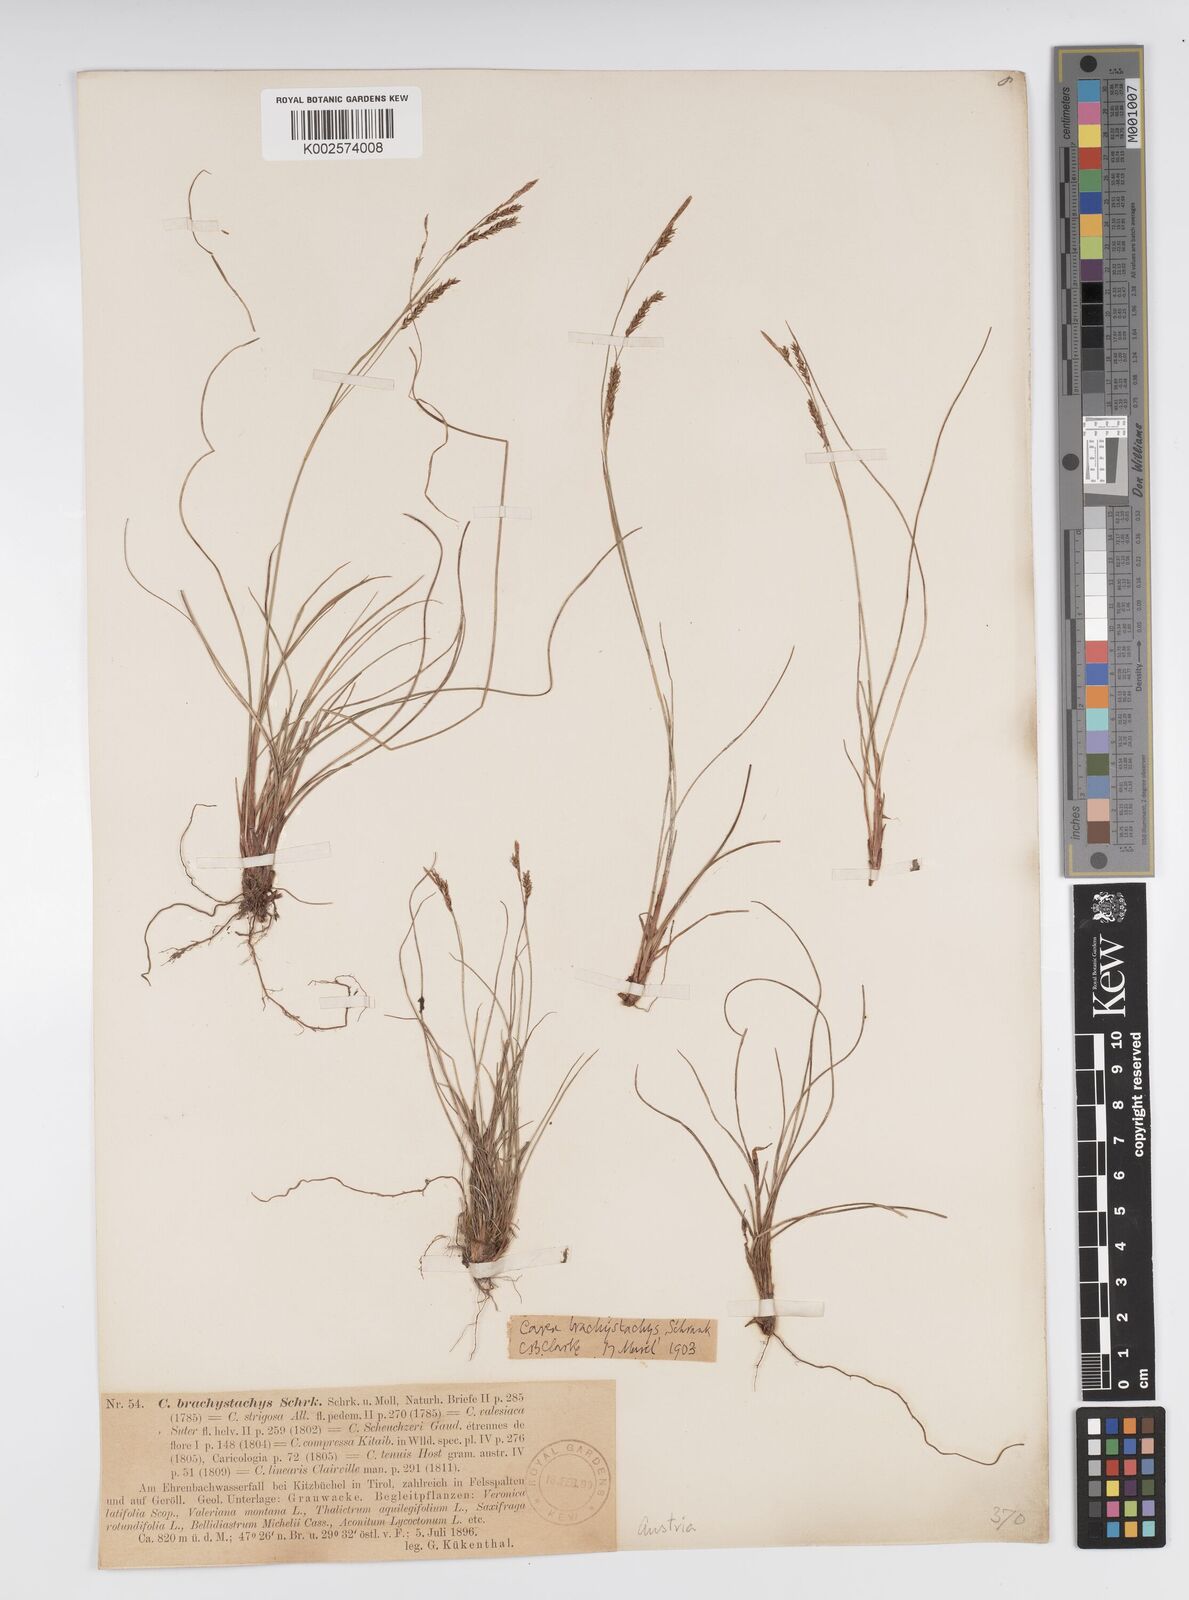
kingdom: Plantae
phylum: Tracheophyta
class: Liliopsida
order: Poales
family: Cyperaceae
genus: Carex
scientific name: Carex brachystachys
